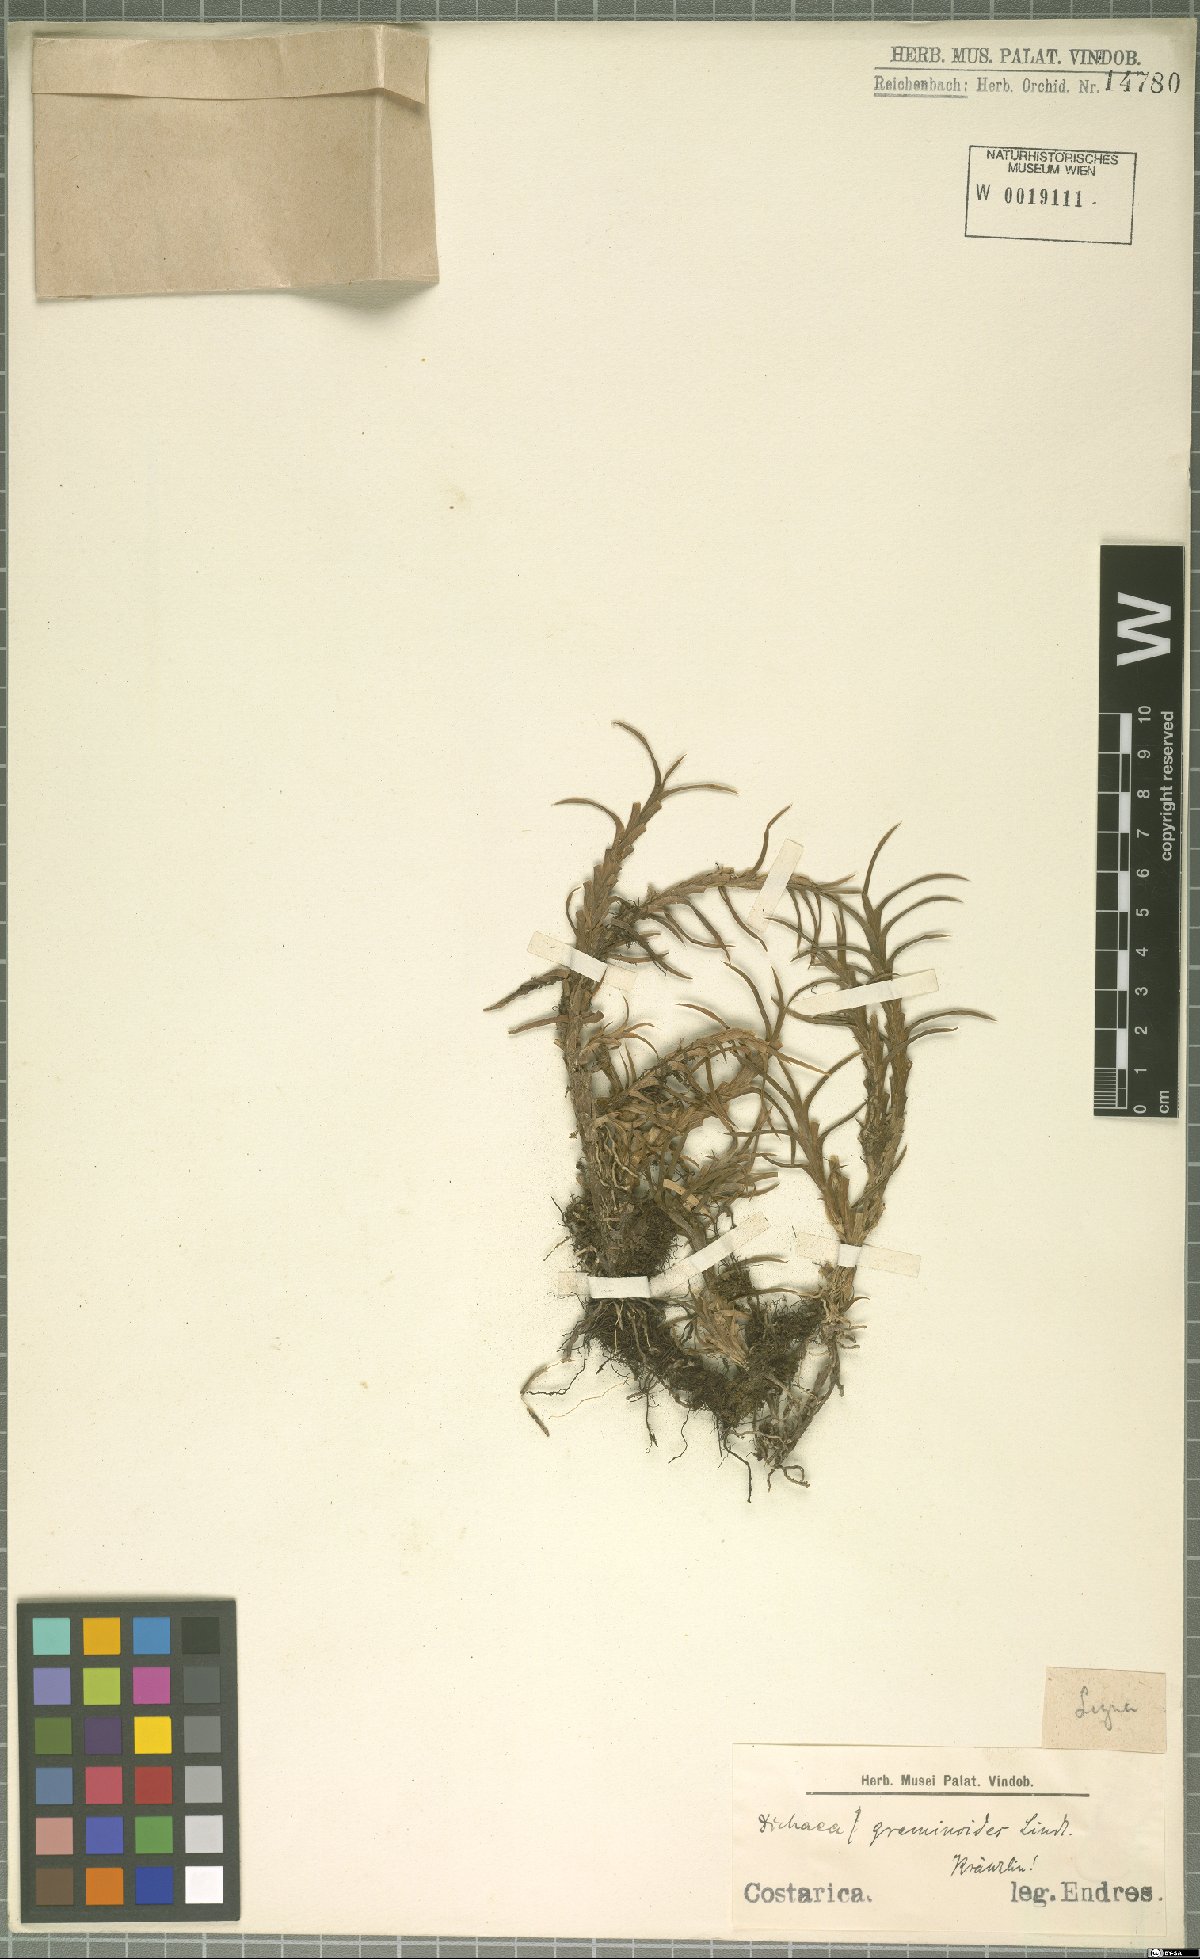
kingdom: Plantae
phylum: Tracheophyta
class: Liliopsida
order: Asparagales
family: Orchidaceae
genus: Dichaea
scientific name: Dichaea graminoides
